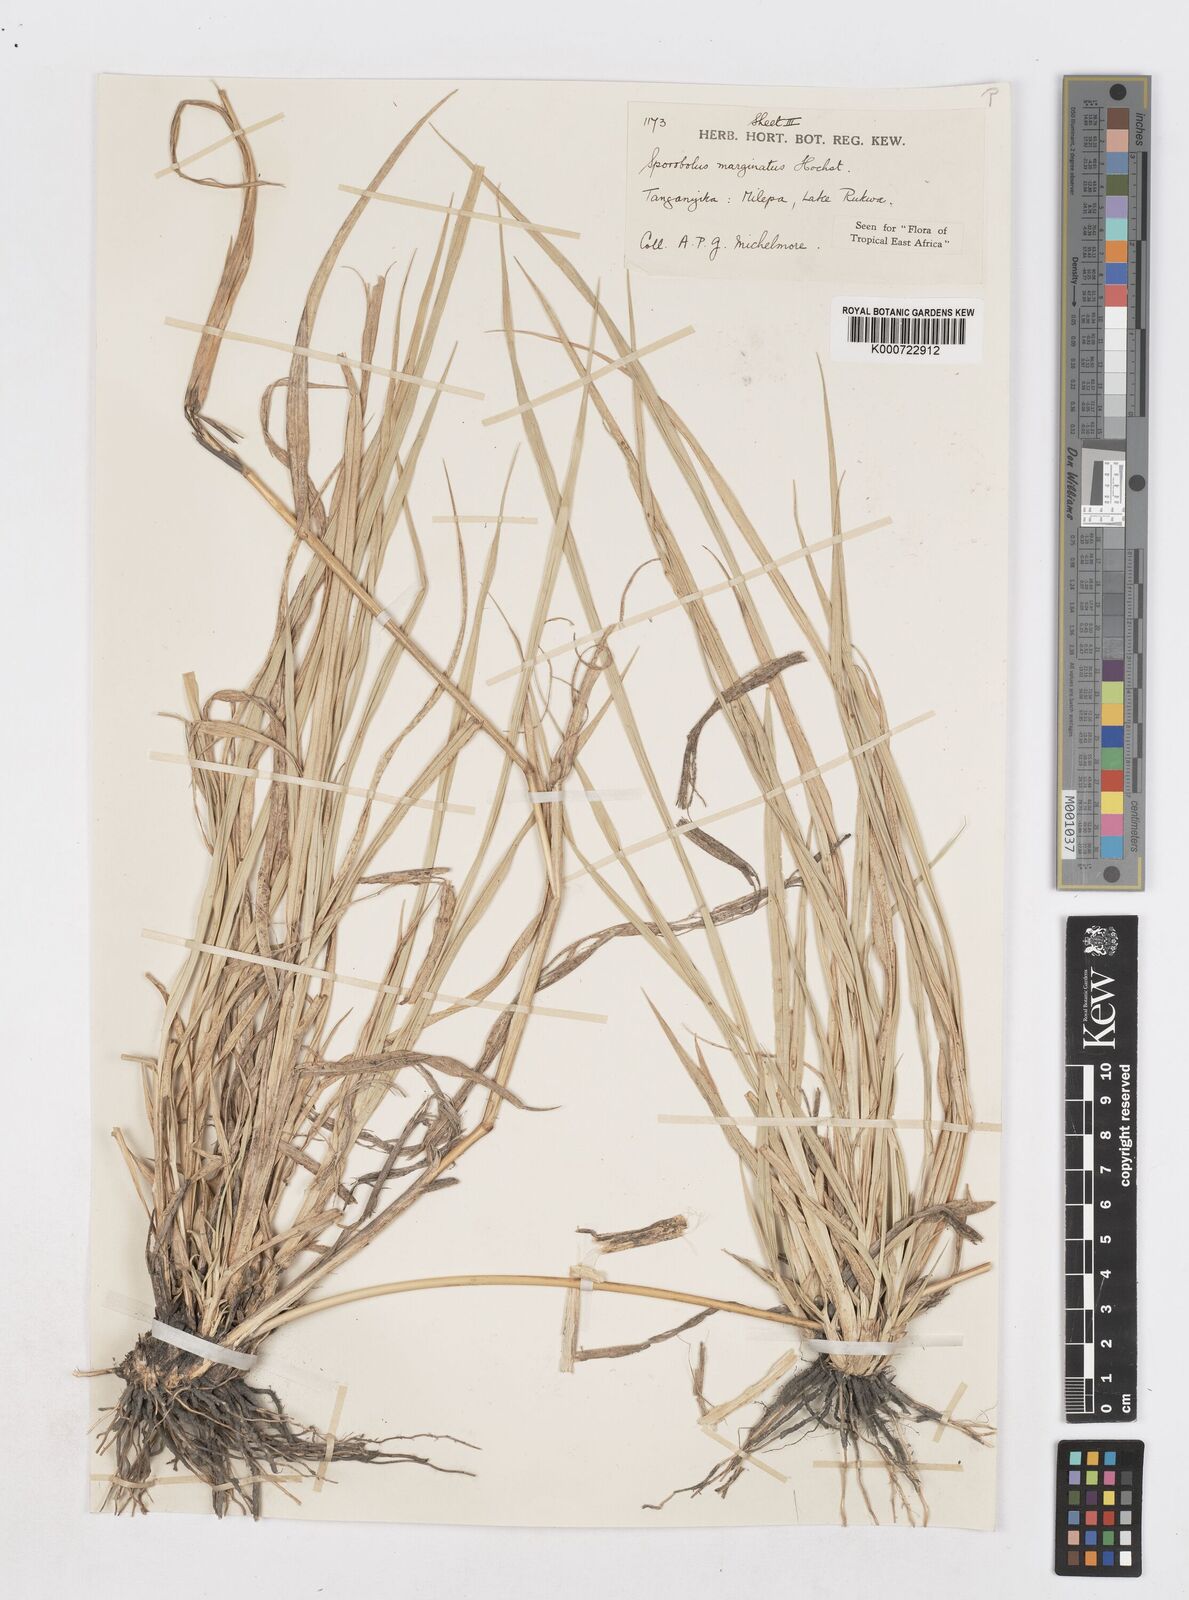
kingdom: Plantae
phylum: Tracheophyta
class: Liliopsida
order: Poales
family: Poaceae
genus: Sporobolus
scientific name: Sporobolus ioclados
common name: Pan dropseed
